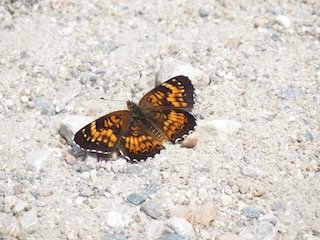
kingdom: Animalia
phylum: Arthropoda
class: Insecta
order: Lepidoptera
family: Nymphalidae
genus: Chlosyne
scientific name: Chlosyne harrisii
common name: Harris's Checkerspot
